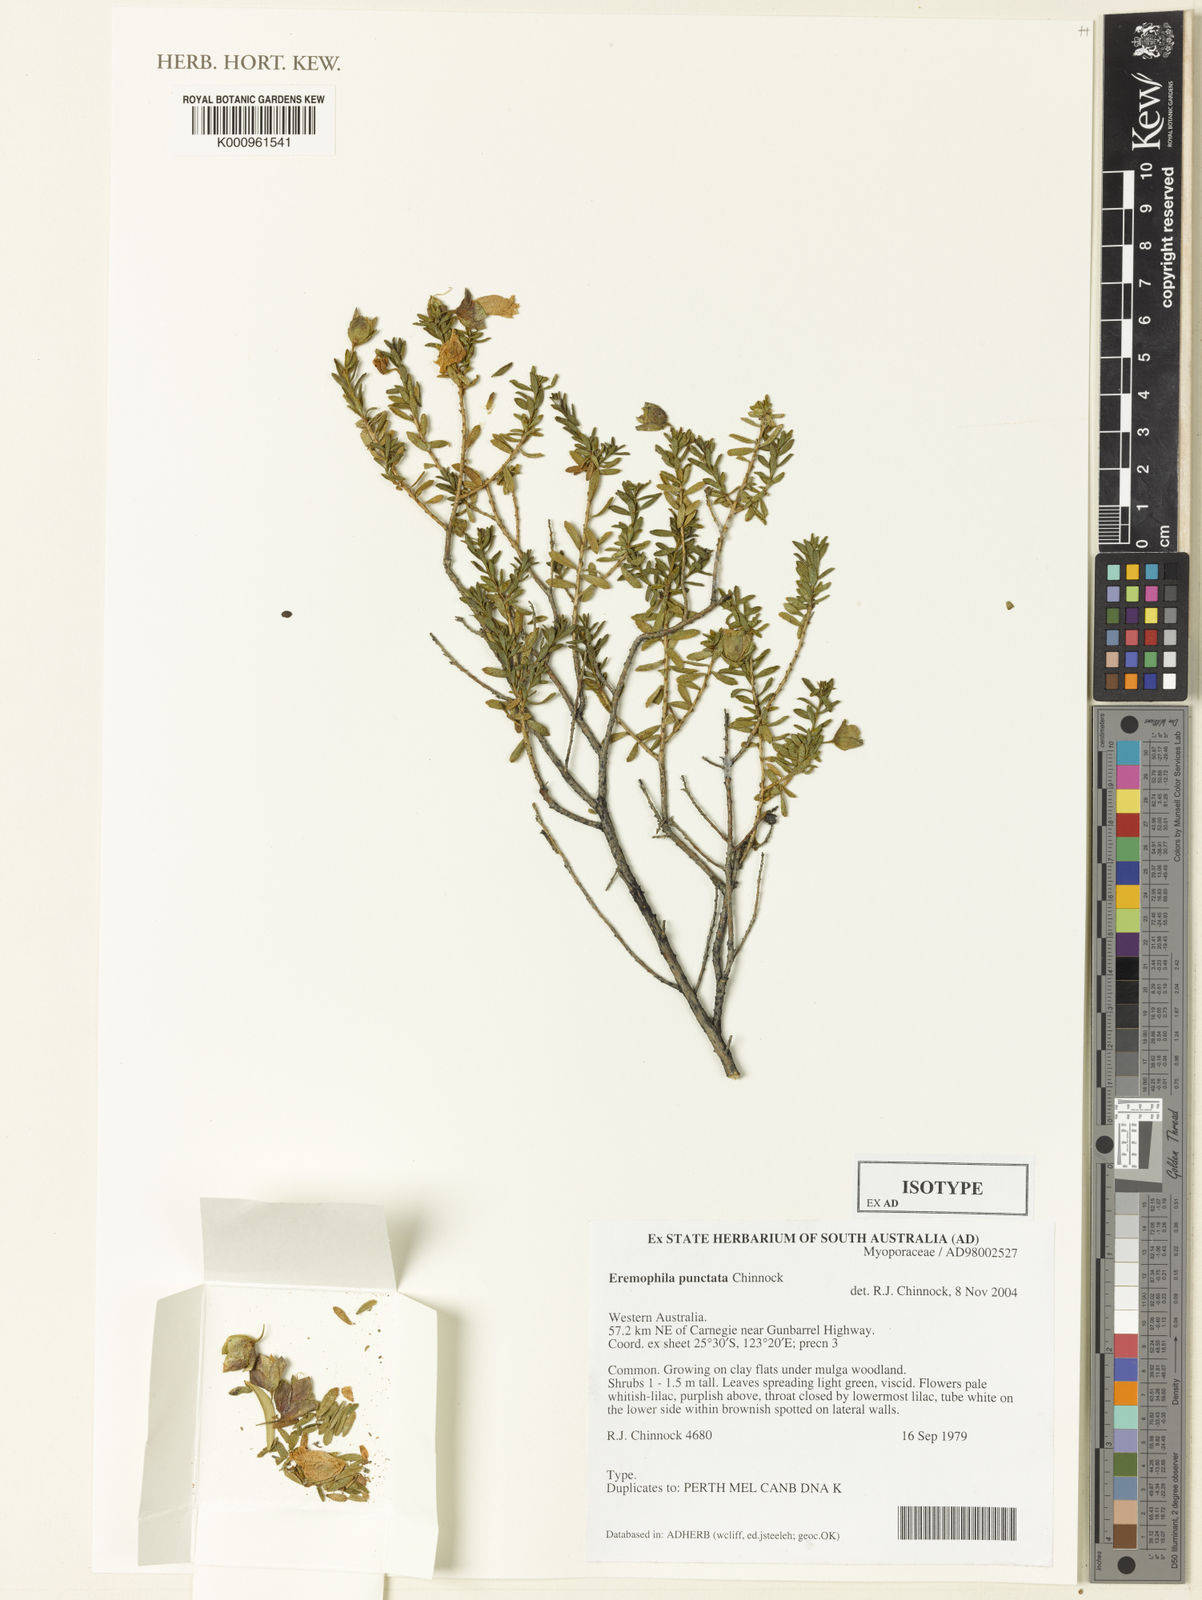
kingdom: Plantae
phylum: Tracheophyta
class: Magnoliopsida
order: Lamiales
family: Scrophulariaceae
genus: Eremophila
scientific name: Eremophila punctata
